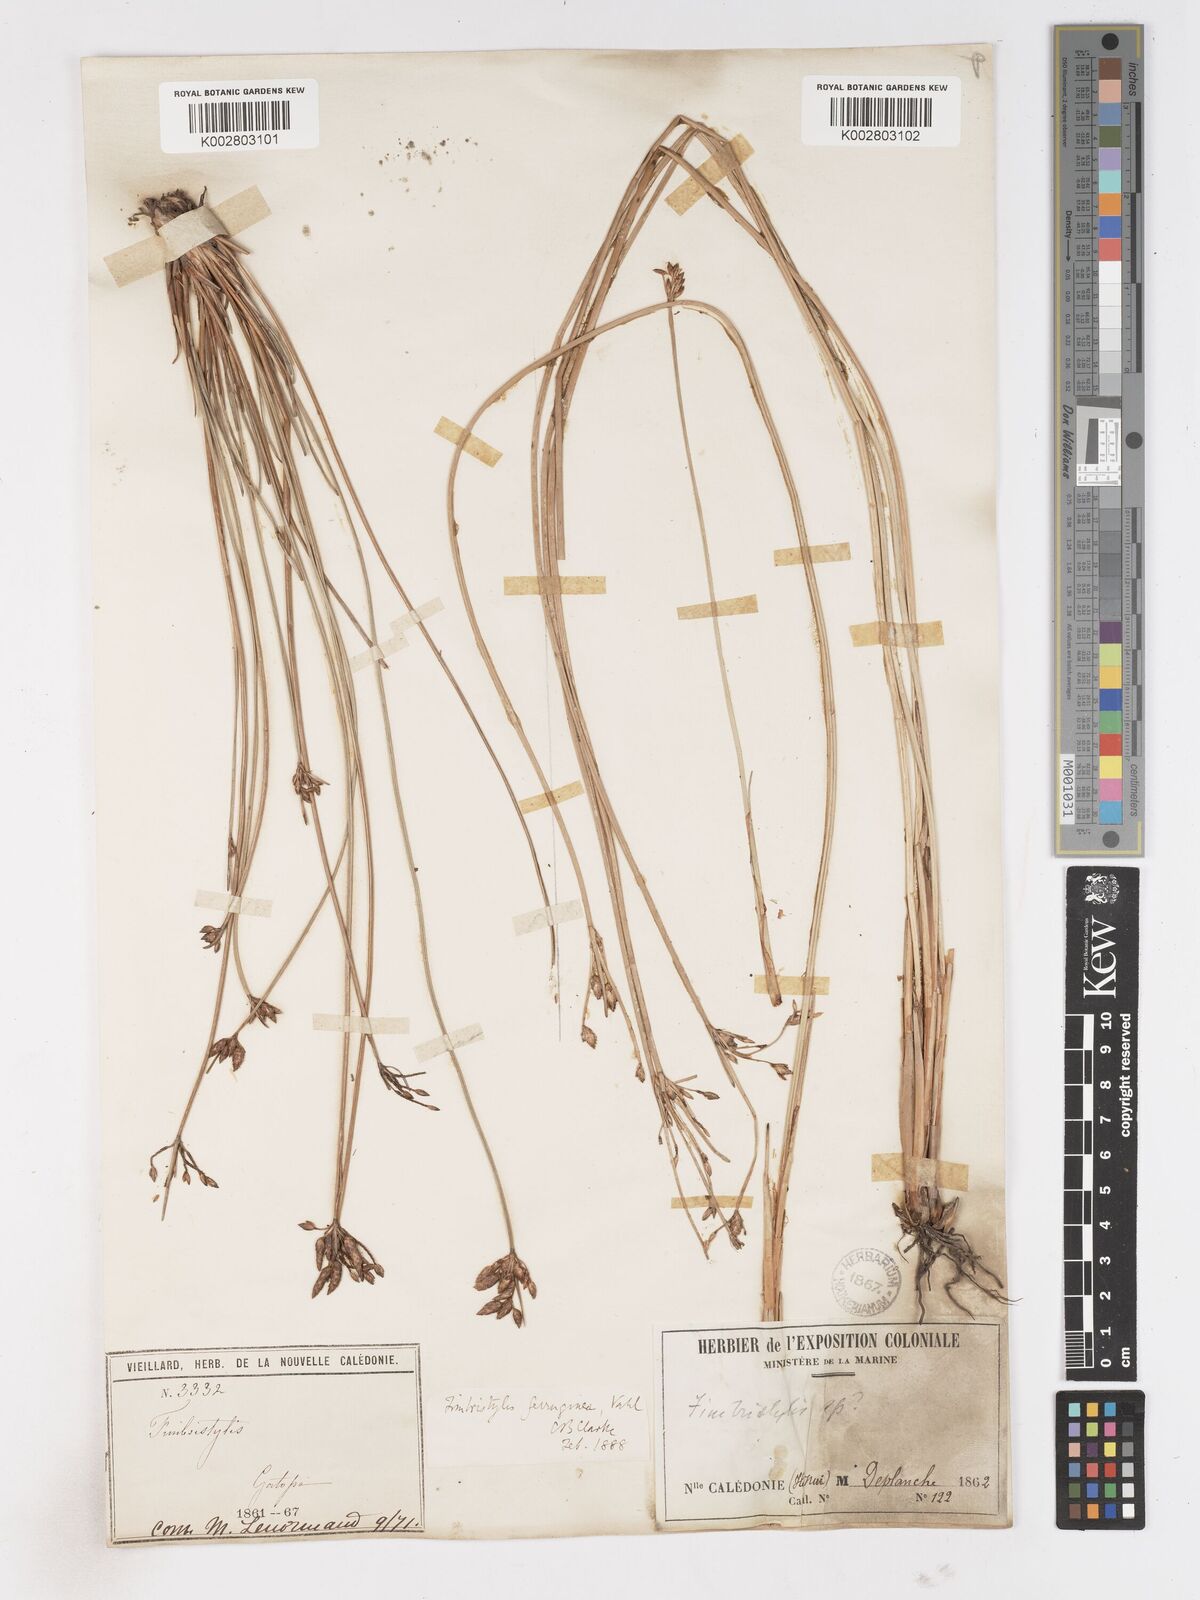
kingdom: Plantae
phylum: Tracheophyta
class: Liliopsida
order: Poales
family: Cyperaceae
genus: Fimbristylis
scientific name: Fimbristylis ferruginea
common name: West indian fimbry
